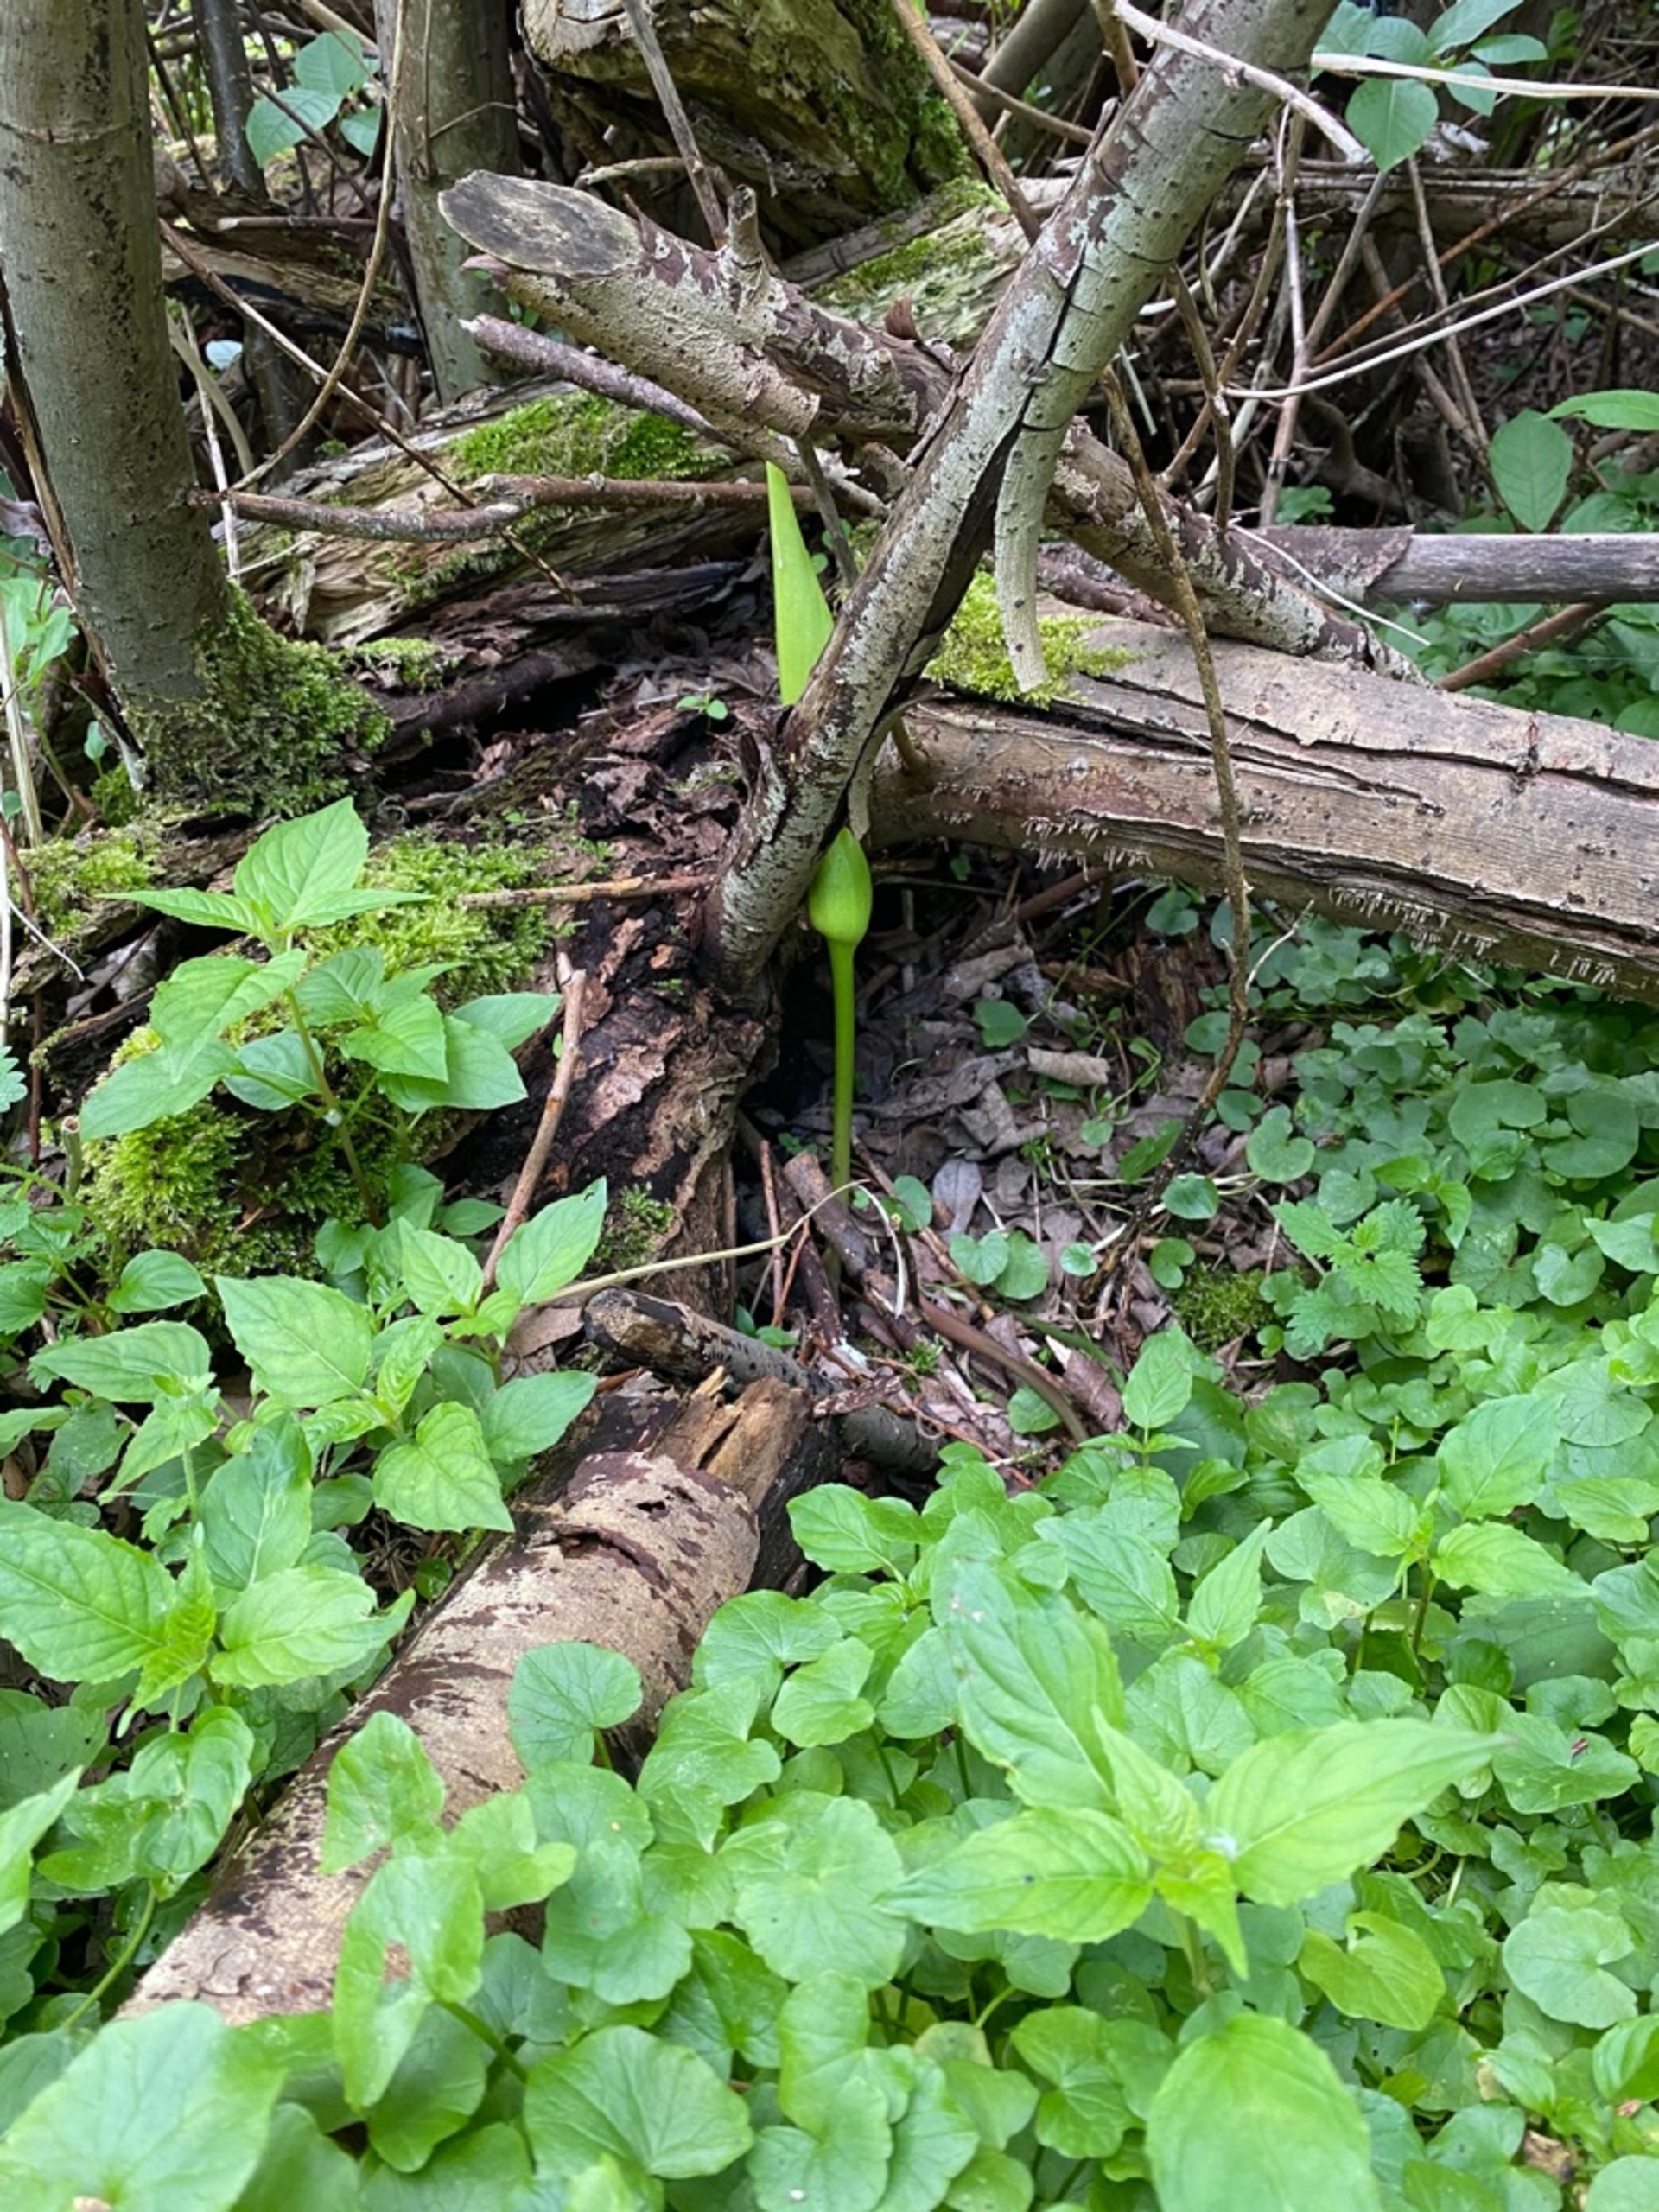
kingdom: Plantae
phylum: Tracheophyta
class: Liliopsida
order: Alismatales
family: Araceae
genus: Arum
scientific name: Arum maculatum
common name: Plettet arum
